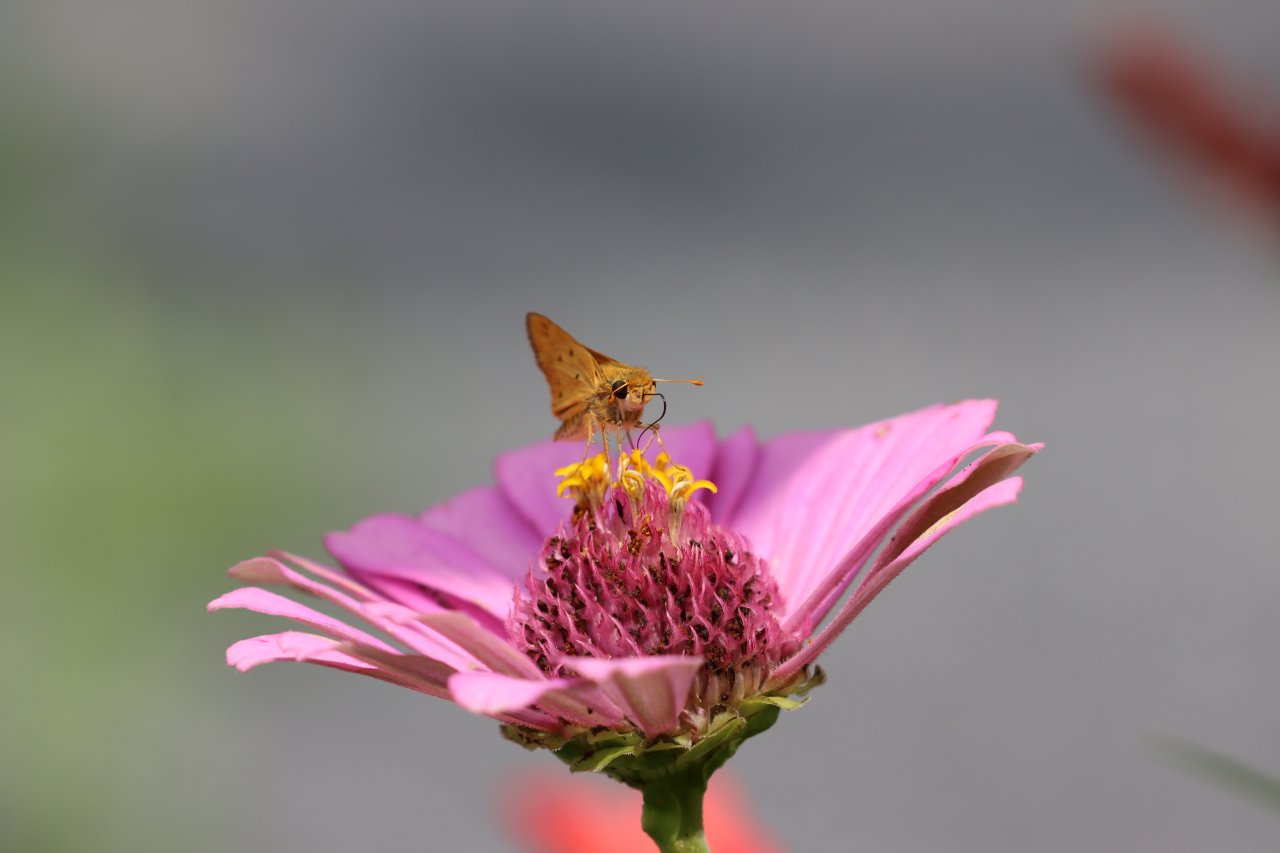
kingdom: Animalia
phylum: Arthropoda
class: Insecta
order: Lepidoptera
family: Hesperiidae
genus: Hylephila
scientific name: Hylephila phyleus
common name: Fiery Skipper
